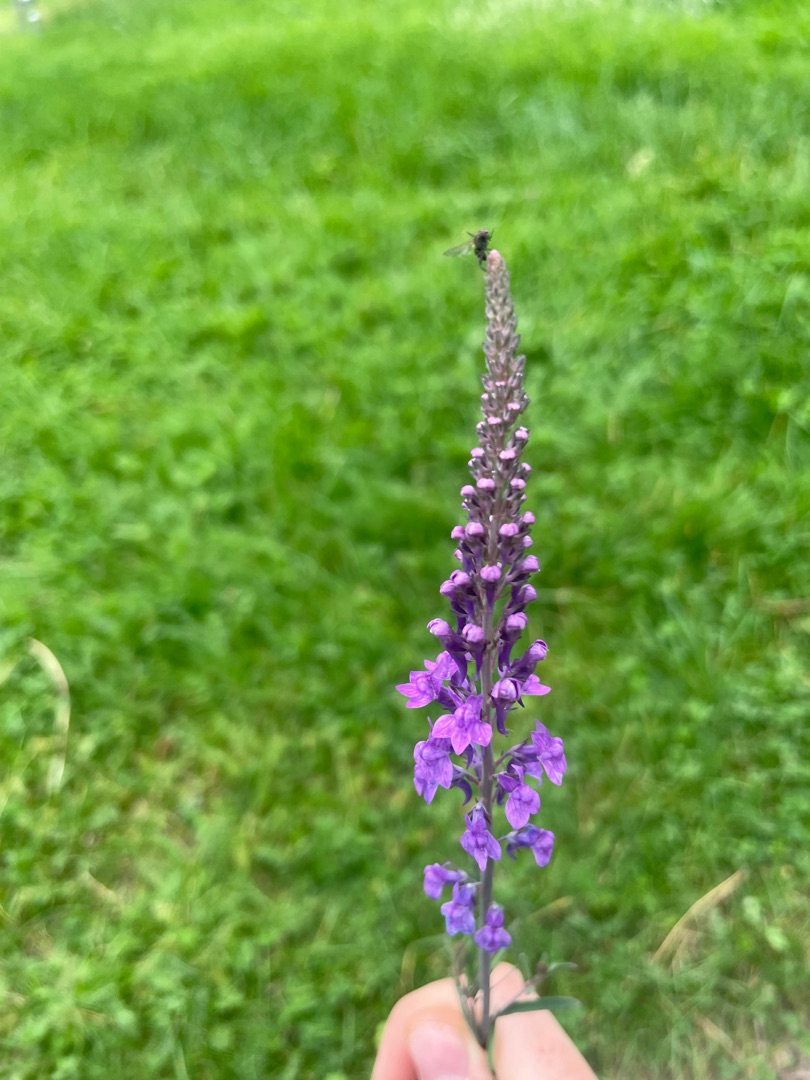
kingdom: Plantae
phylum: Tracheophyta
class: Magnoliopsida
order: Lamiales
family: Plantaginaceae
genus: Linaria
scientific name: Linaria purpurea
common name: Purpur-torskemund
